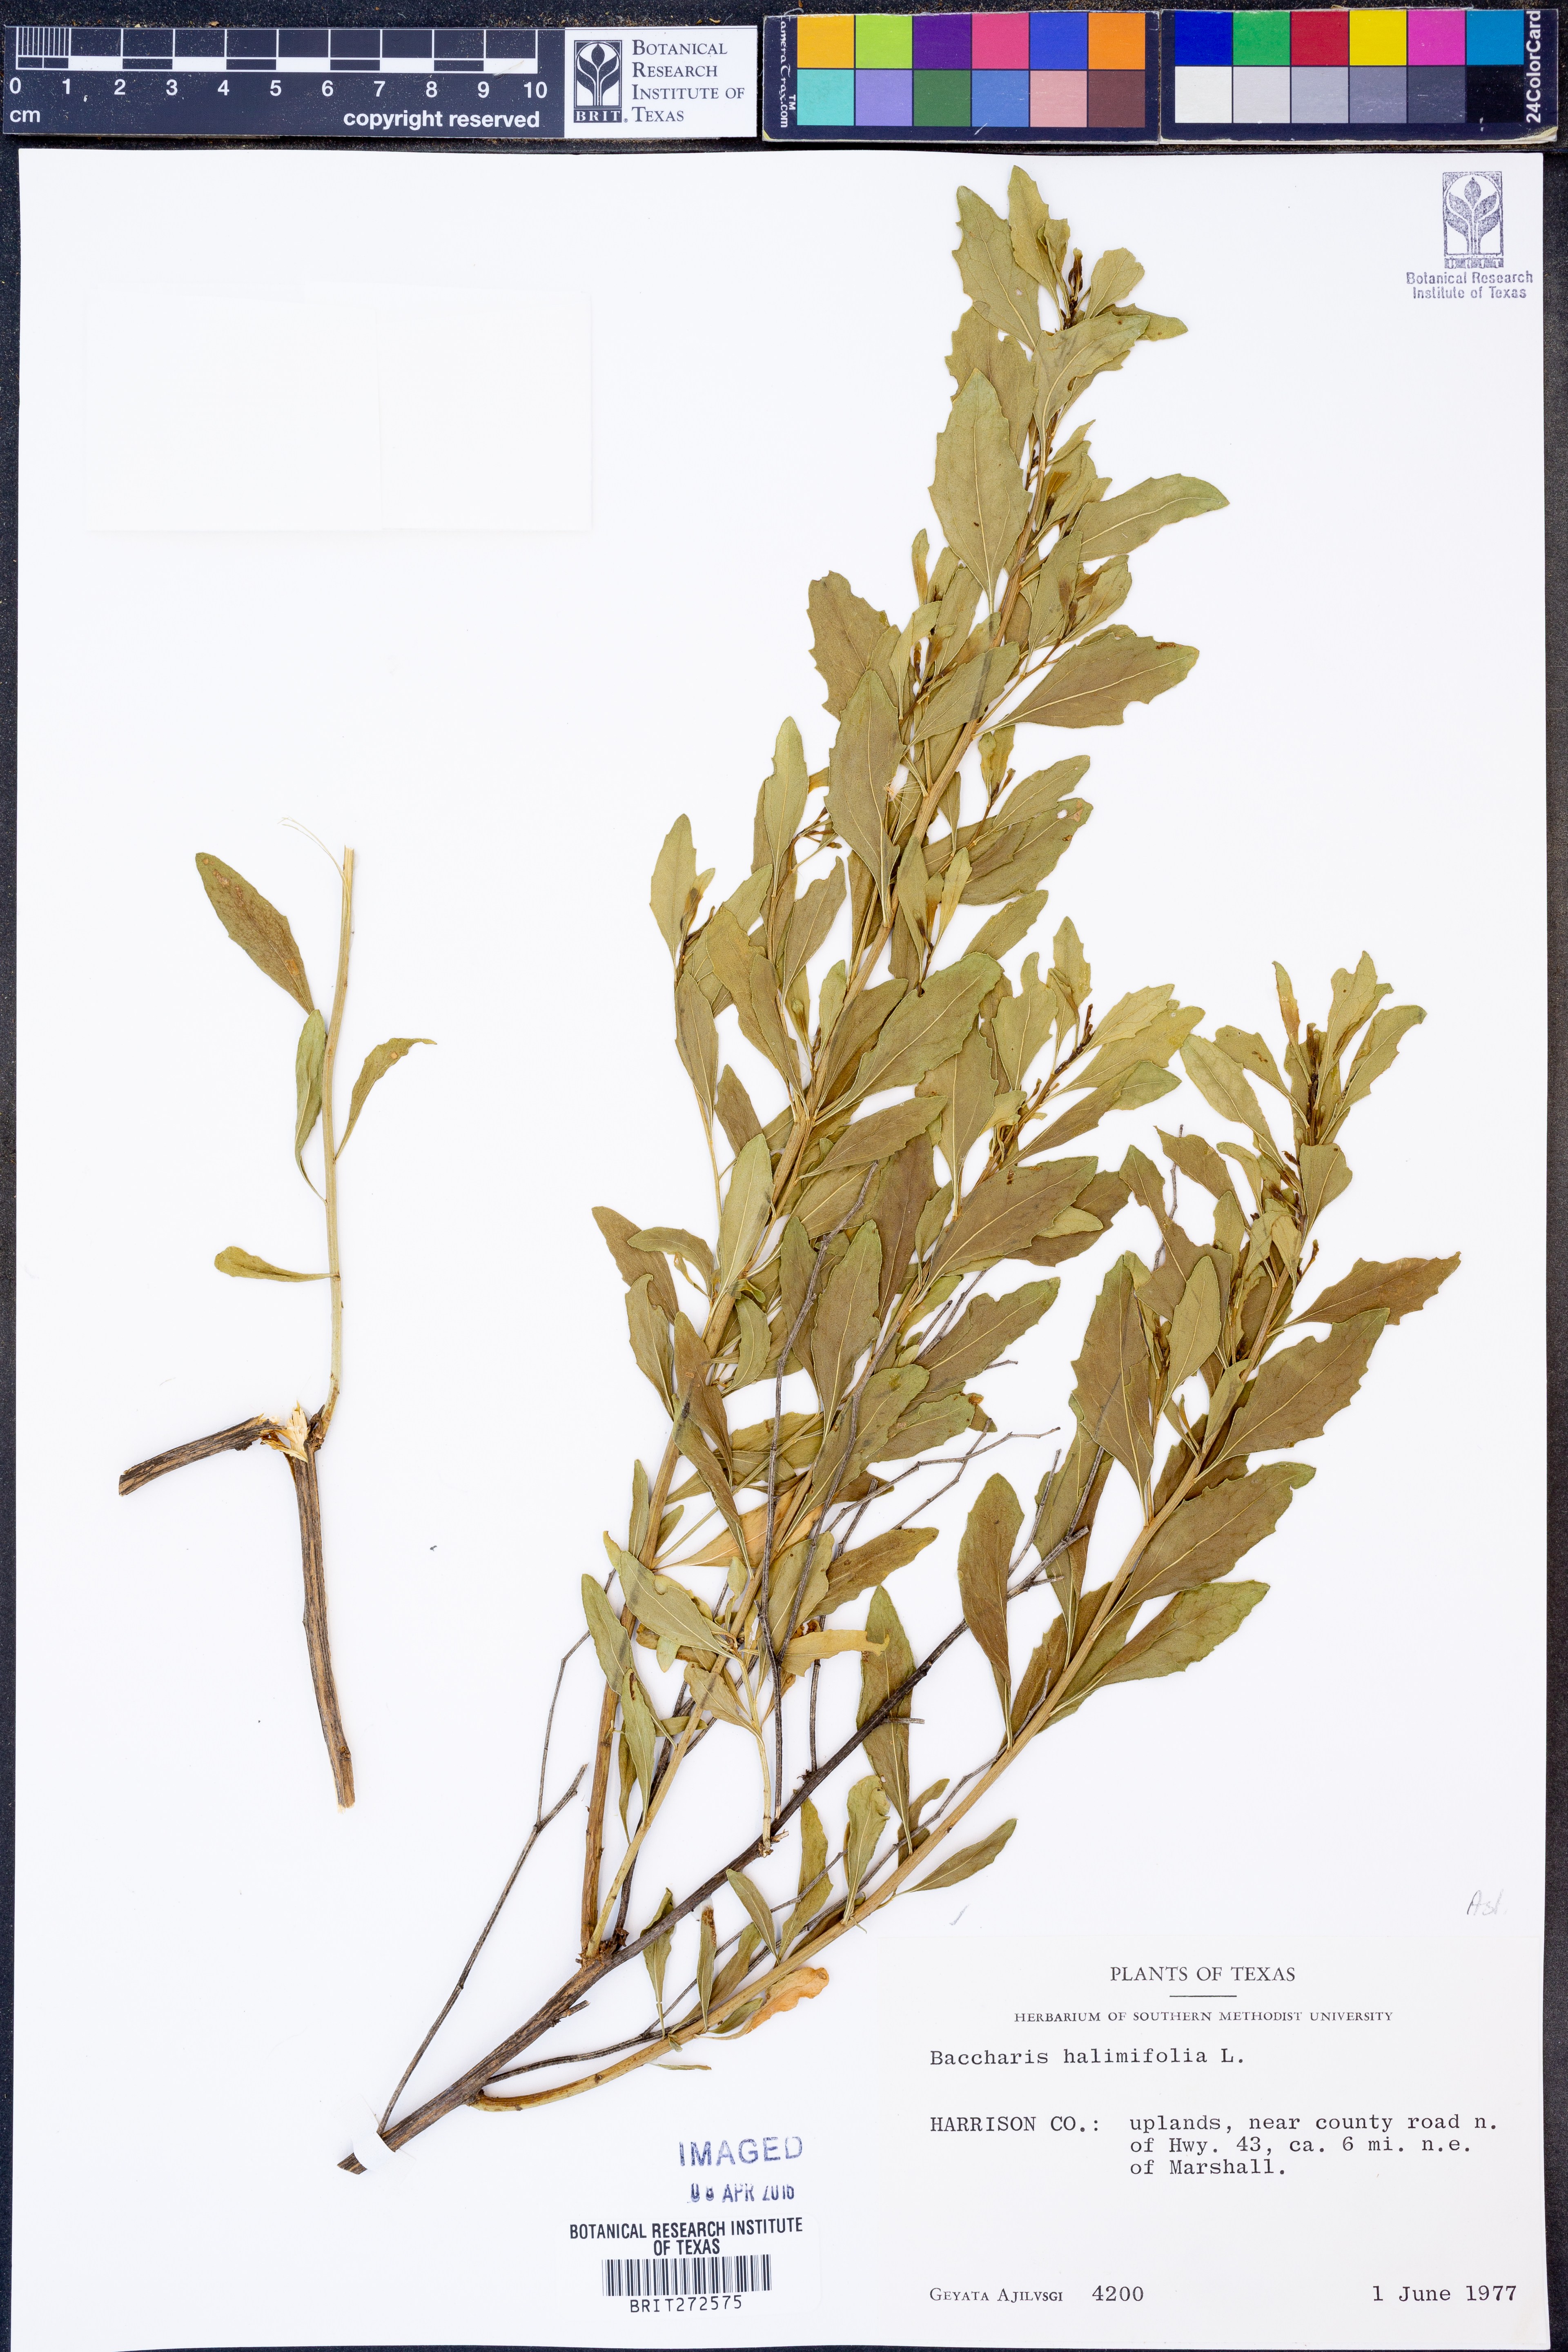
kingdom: Plantae
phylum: Tracheophyta
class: Magnoliopsida
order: Asterales
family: Asteraceae
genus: Nidorella
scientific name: Nidorella ivifolia
